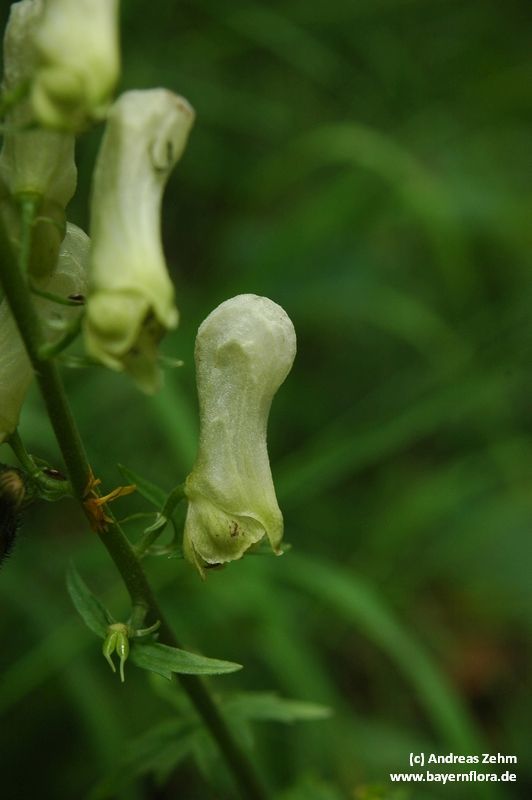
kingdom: Plantae
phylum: Tracheophyta
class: Magnoliopsida
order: Ranunculales
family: Ranunculaceae
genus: Aconitum
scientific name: Aconitum lycoctonum
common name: Wolf's-bane
